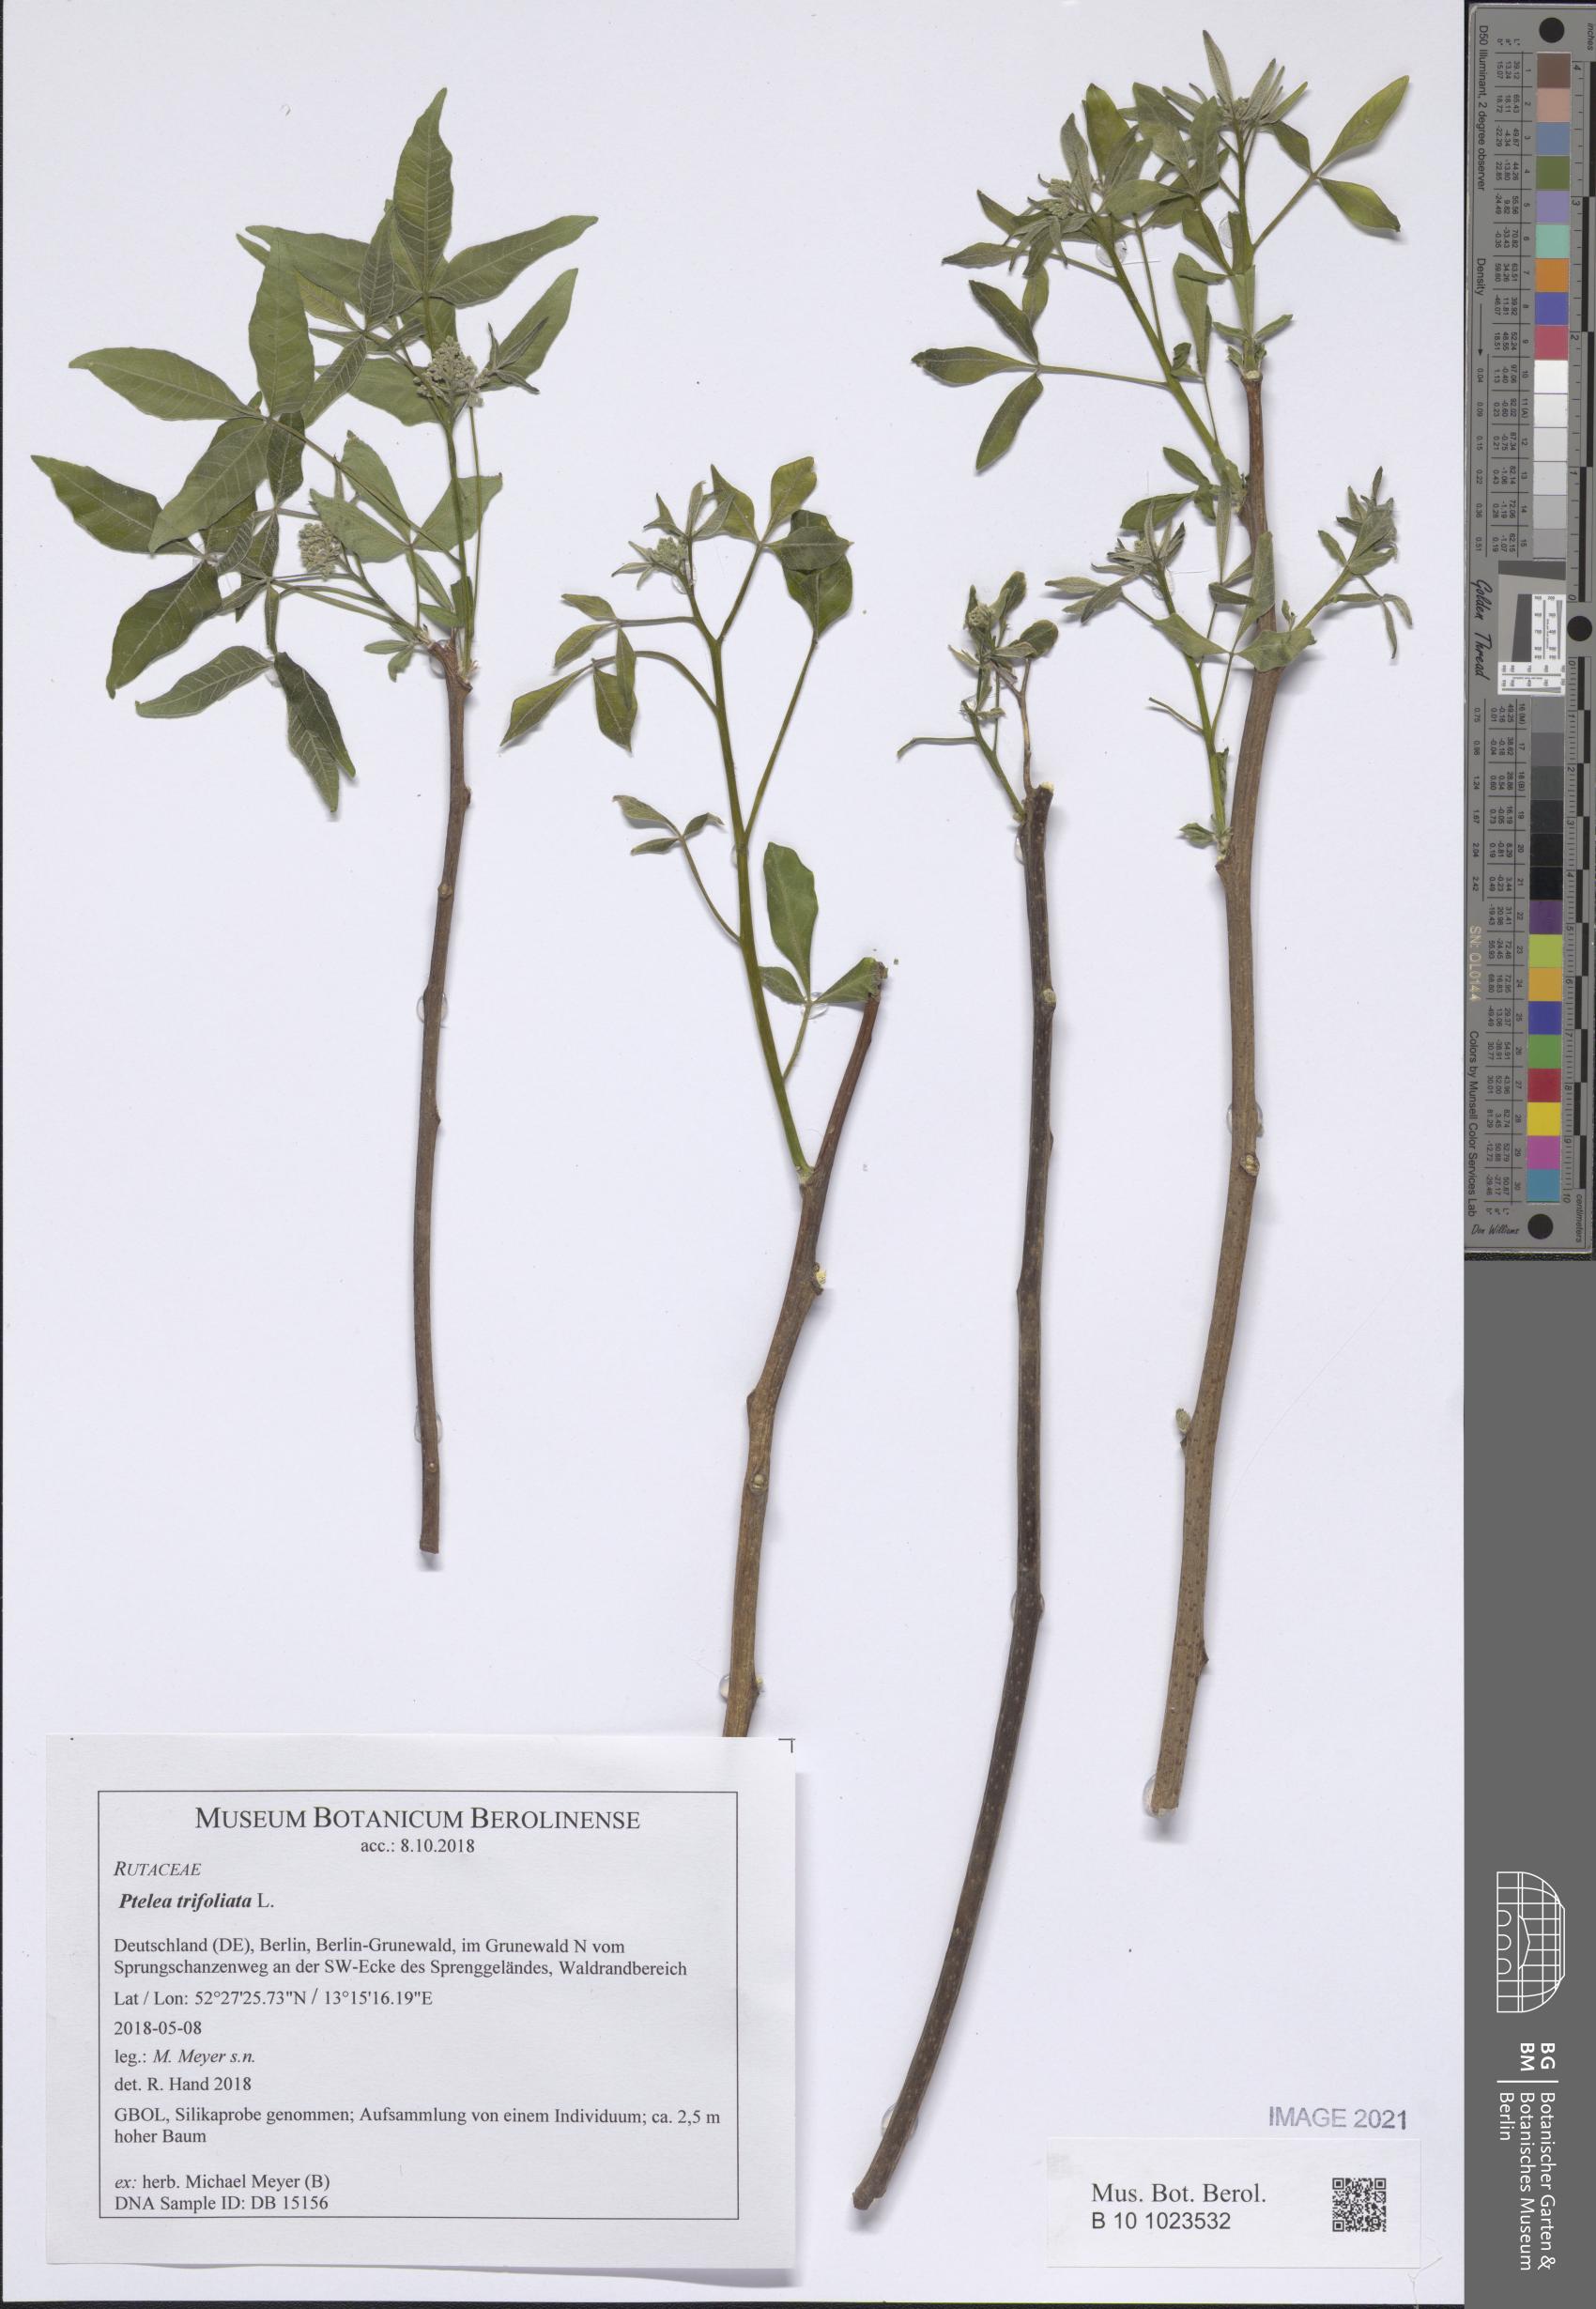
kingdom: Plantae
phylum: Tracheophyta
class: Magnoliopsida
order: Sapindales
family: Rutaceae
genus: Ptelea
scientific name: Ptelea trifoliata
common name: Common hop-tree
